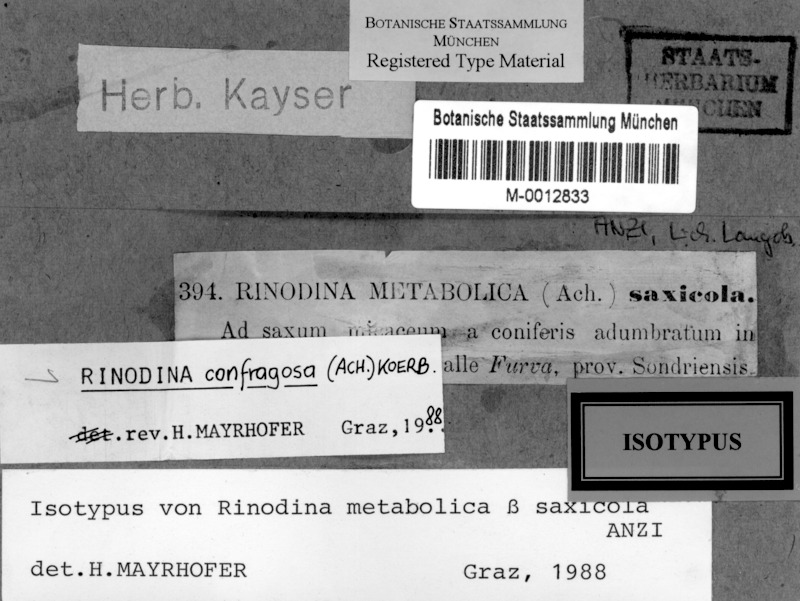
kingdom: Fungi
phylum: Ascomycota
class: Lecanoromycetes
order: Caliciales
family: Physciaceae
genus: Rinodina
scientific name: Rinodina confragosa
